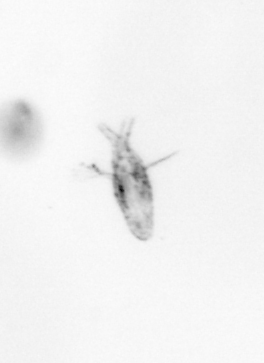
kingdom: Animalia
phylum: Arthropoda
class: Copepoda
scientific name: Copepoda
